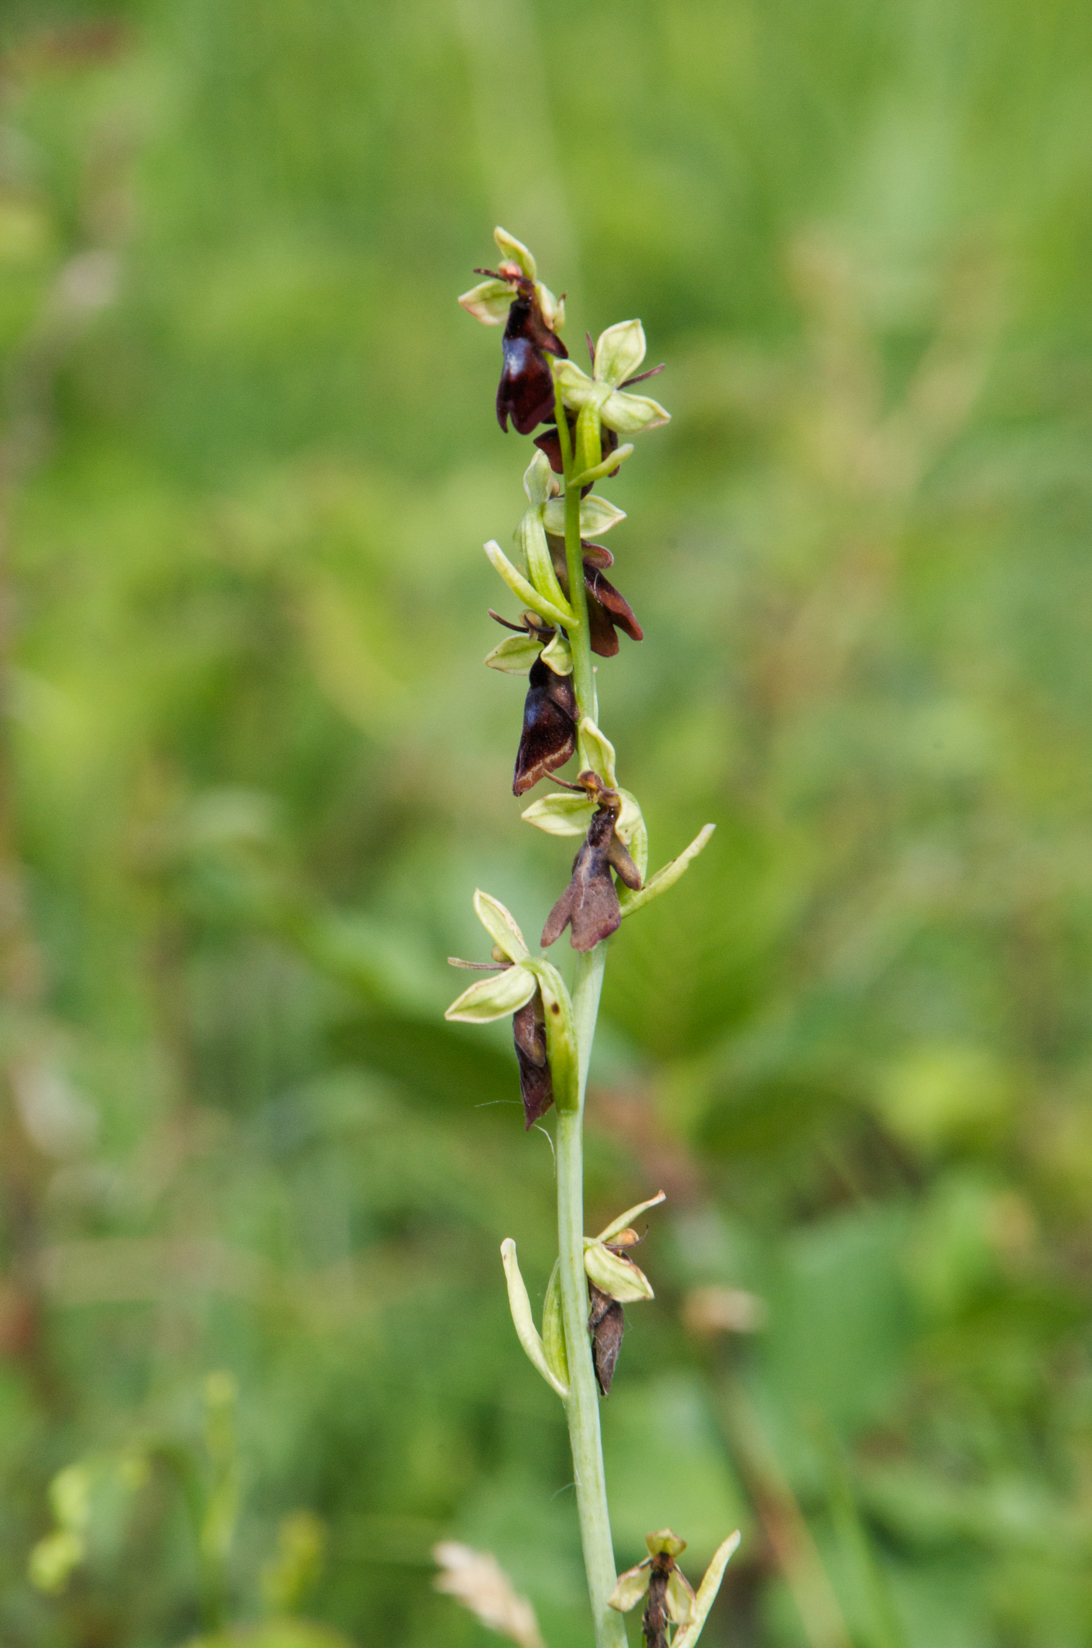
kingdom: Plantae
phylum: Tracheophyta
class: Liliopsida
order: Asparagales
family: Orchidaceae
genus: Ophrys
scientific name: Ophrys insectifera
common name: Fly orchid
